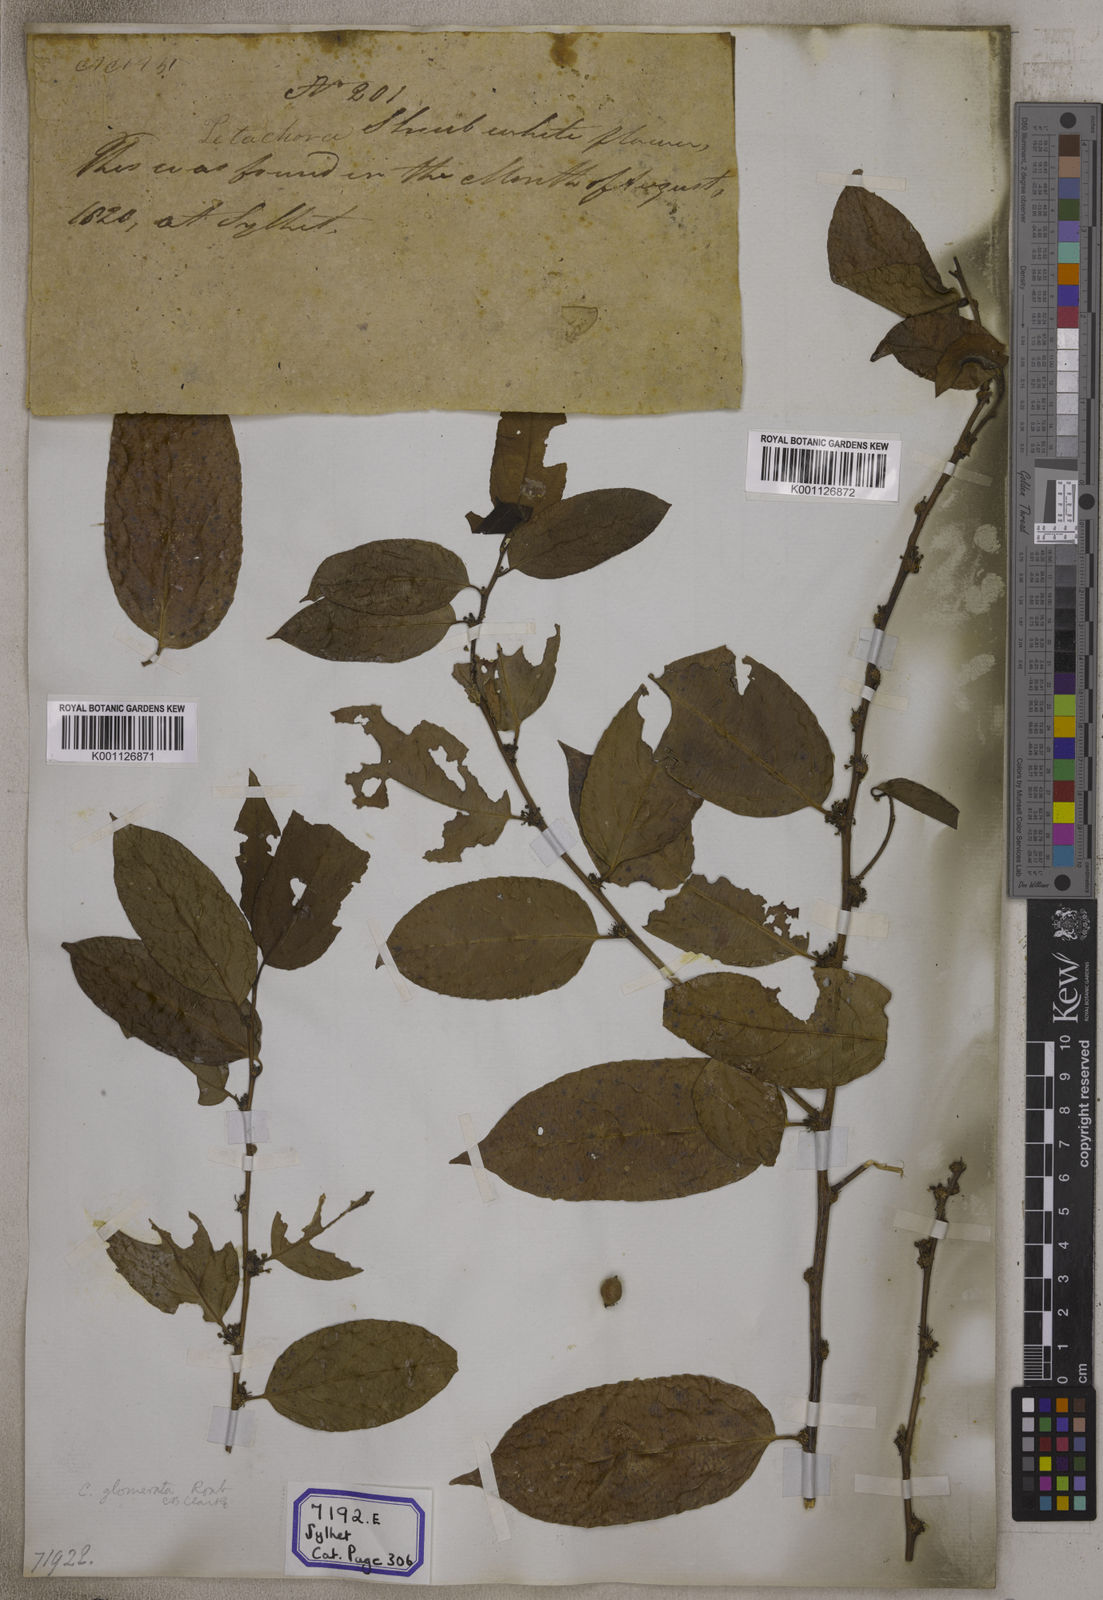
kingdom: Plantae
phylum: Tracheophyta
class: Magnoliopsida
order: Malpighiales
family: Salicaceae
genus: Casearia
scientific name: Casearia
